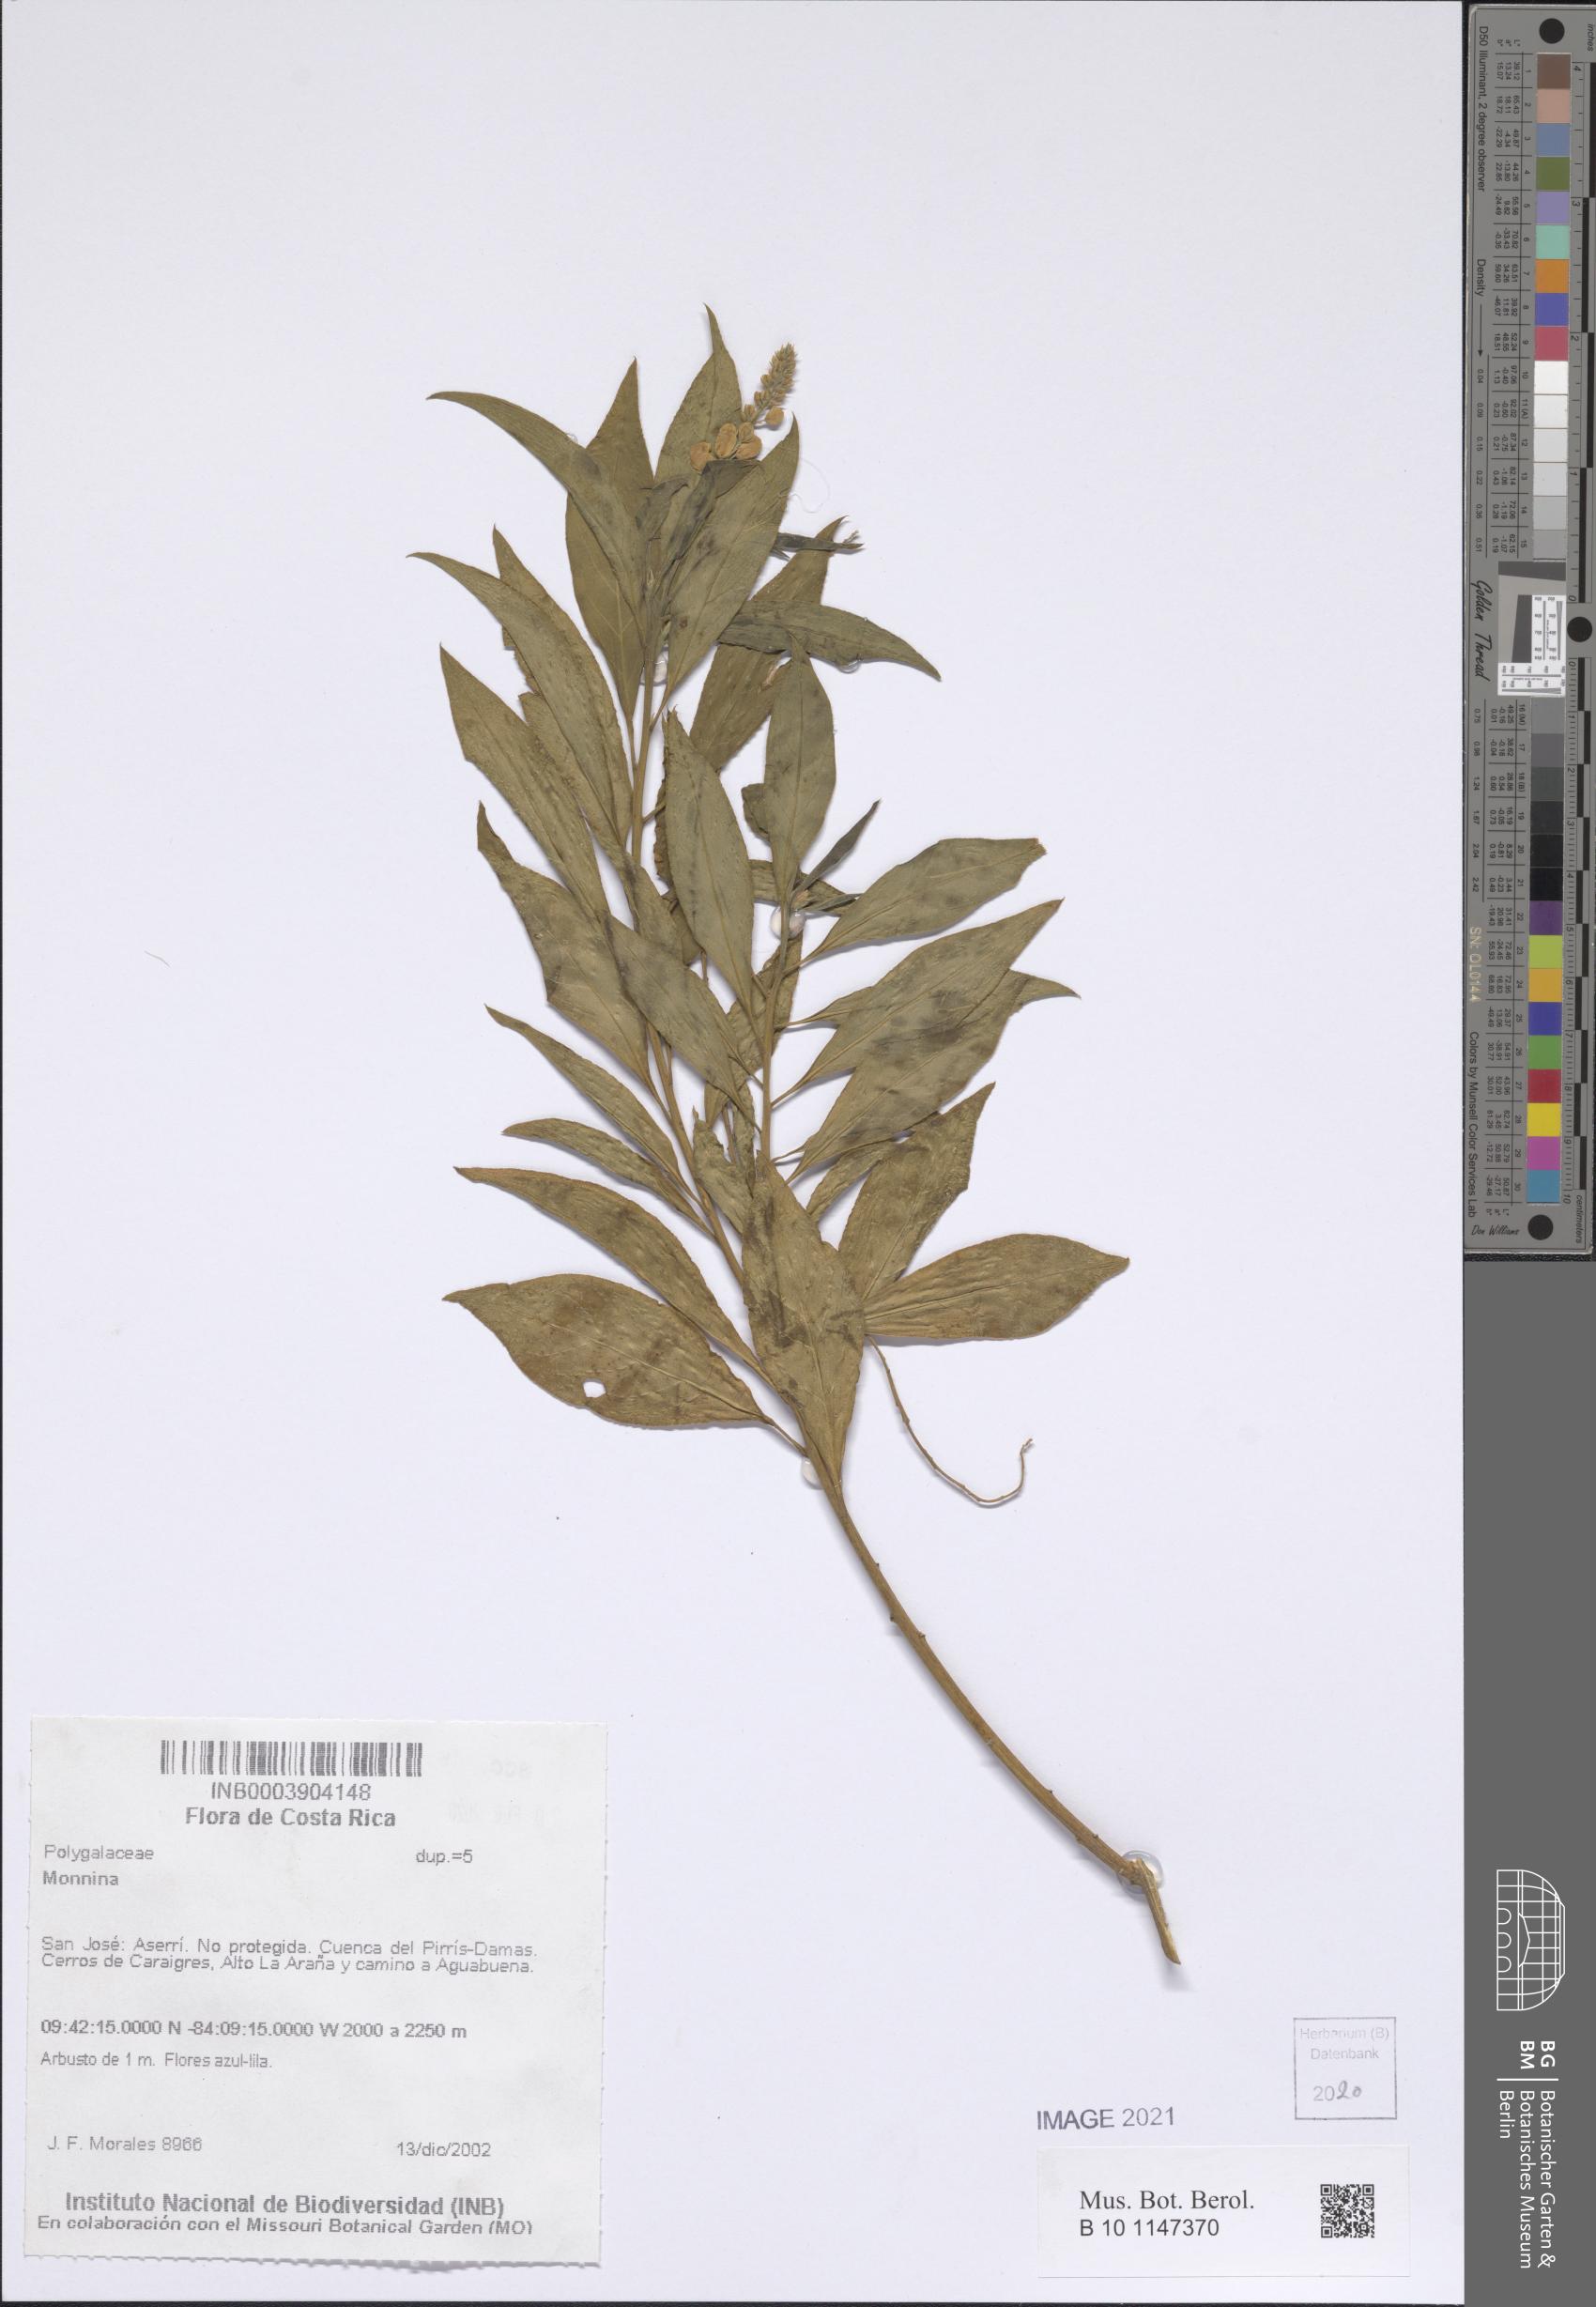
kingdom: Plantae
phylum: Tracheophyta
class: Magnoliopsida
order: Fabales
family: Polygalaceae
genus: Monnina
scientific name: Monnina
